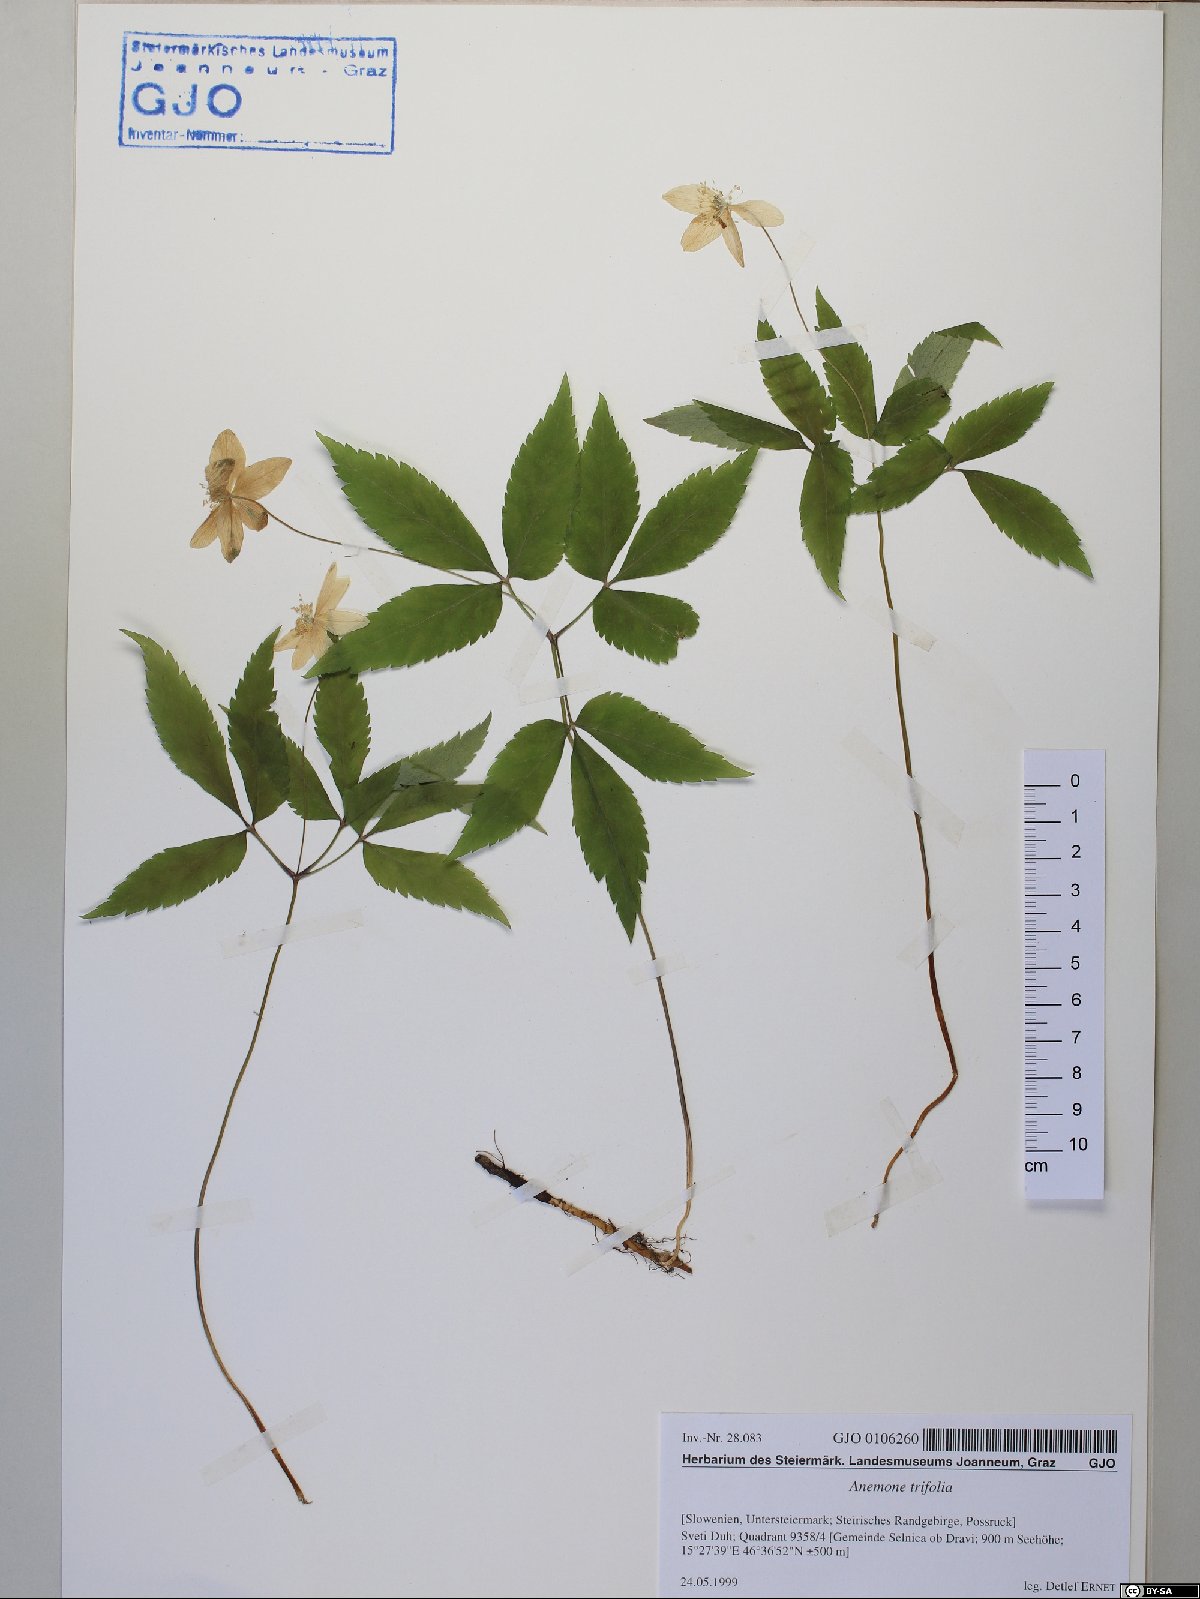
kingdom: Plantae
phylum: Tracheophyta
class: Magnoliopsida
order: Ranunculales
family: Ranunculaceae
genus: Anemone
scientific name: Anemone trifolia
